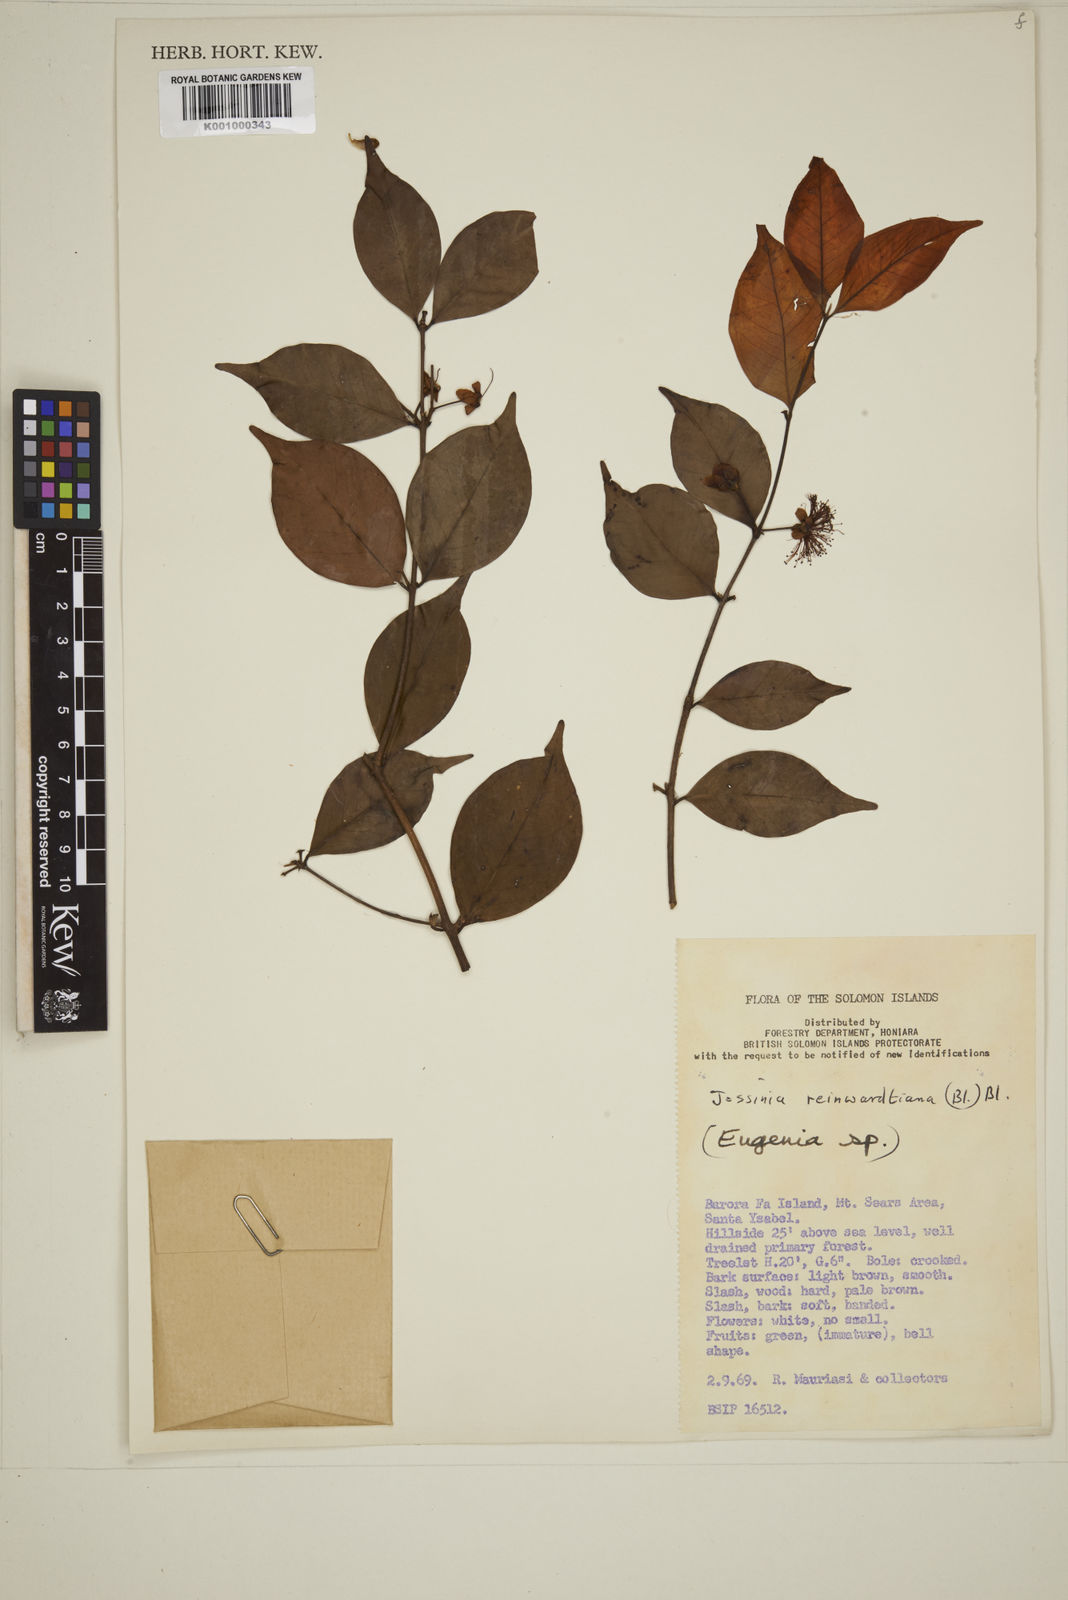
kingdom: Plantae
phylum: Tracheophyta
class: Magnoliopsida
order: Myrtales
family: Myrtaceae
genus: Eugenia
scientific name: Eugenia reinwardtiana
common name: Cedar bay-cherry
